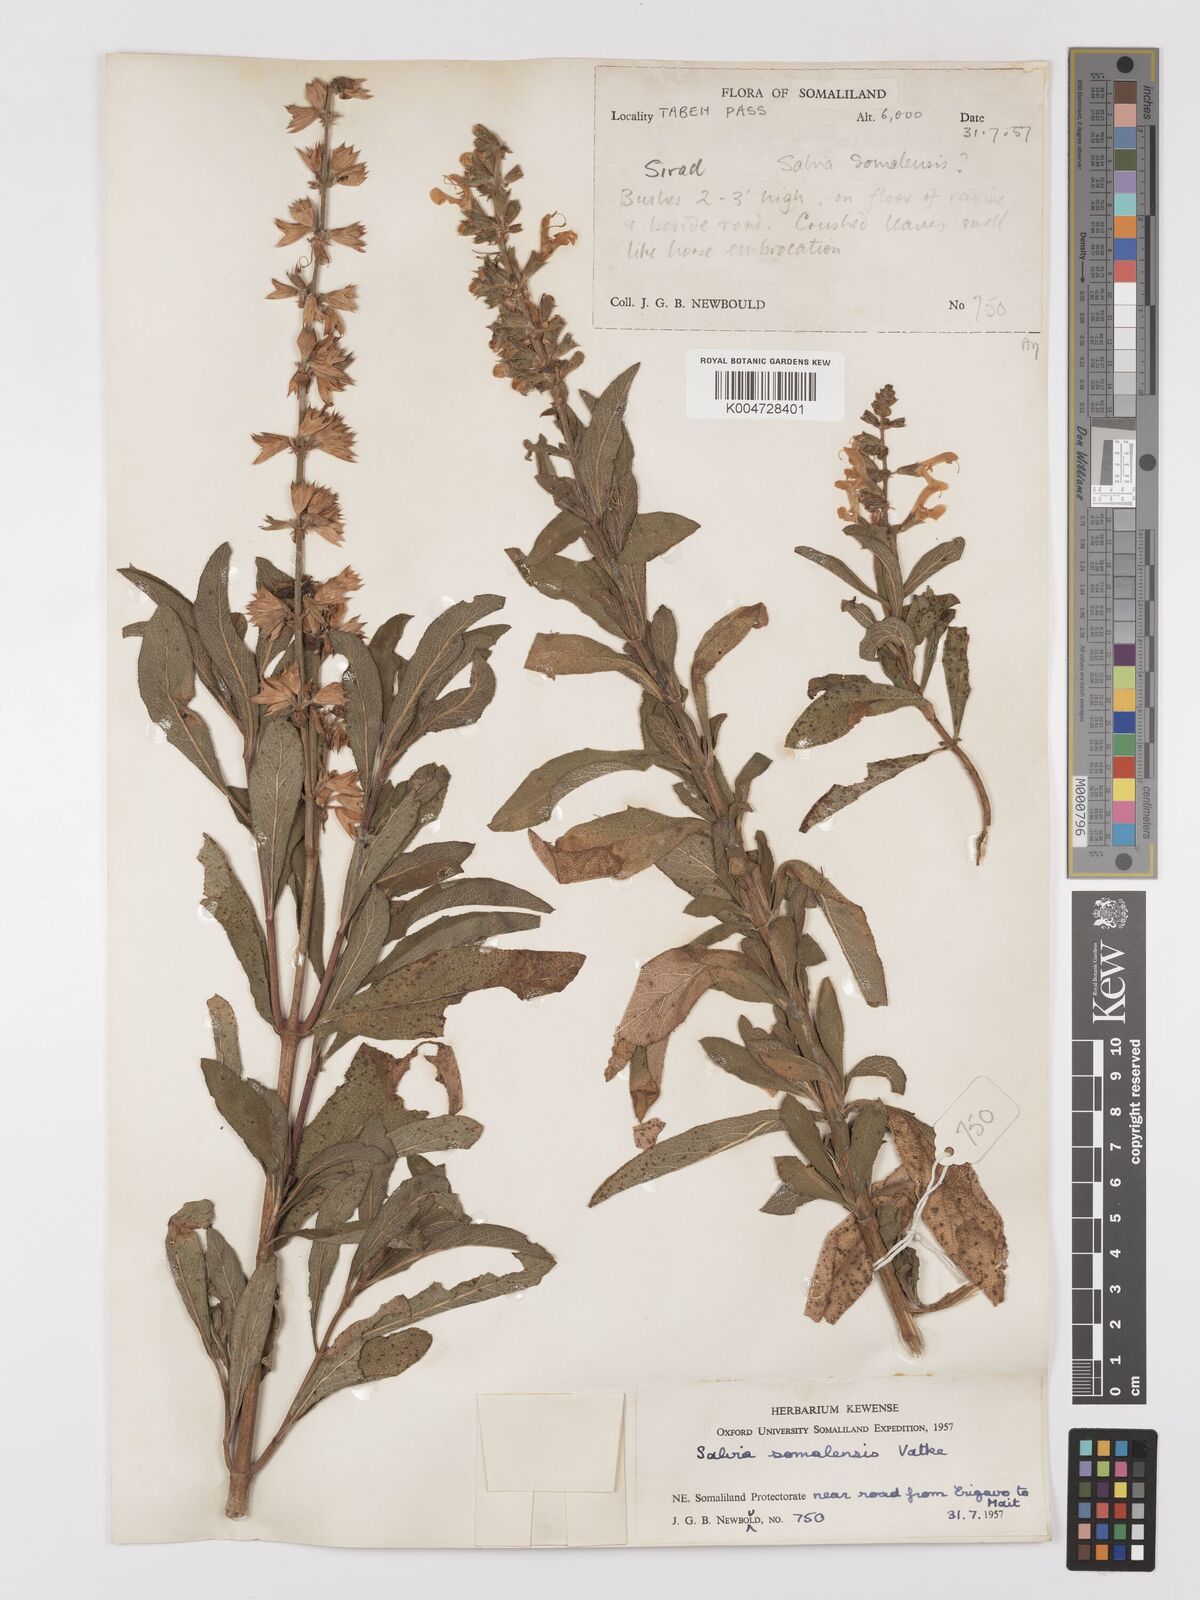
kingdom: Plantae
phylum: Tracheophyta
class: Magnoliopsida
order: Lamiales
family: Lamiaceae
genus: Salvia
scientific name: Salvia somalensis
